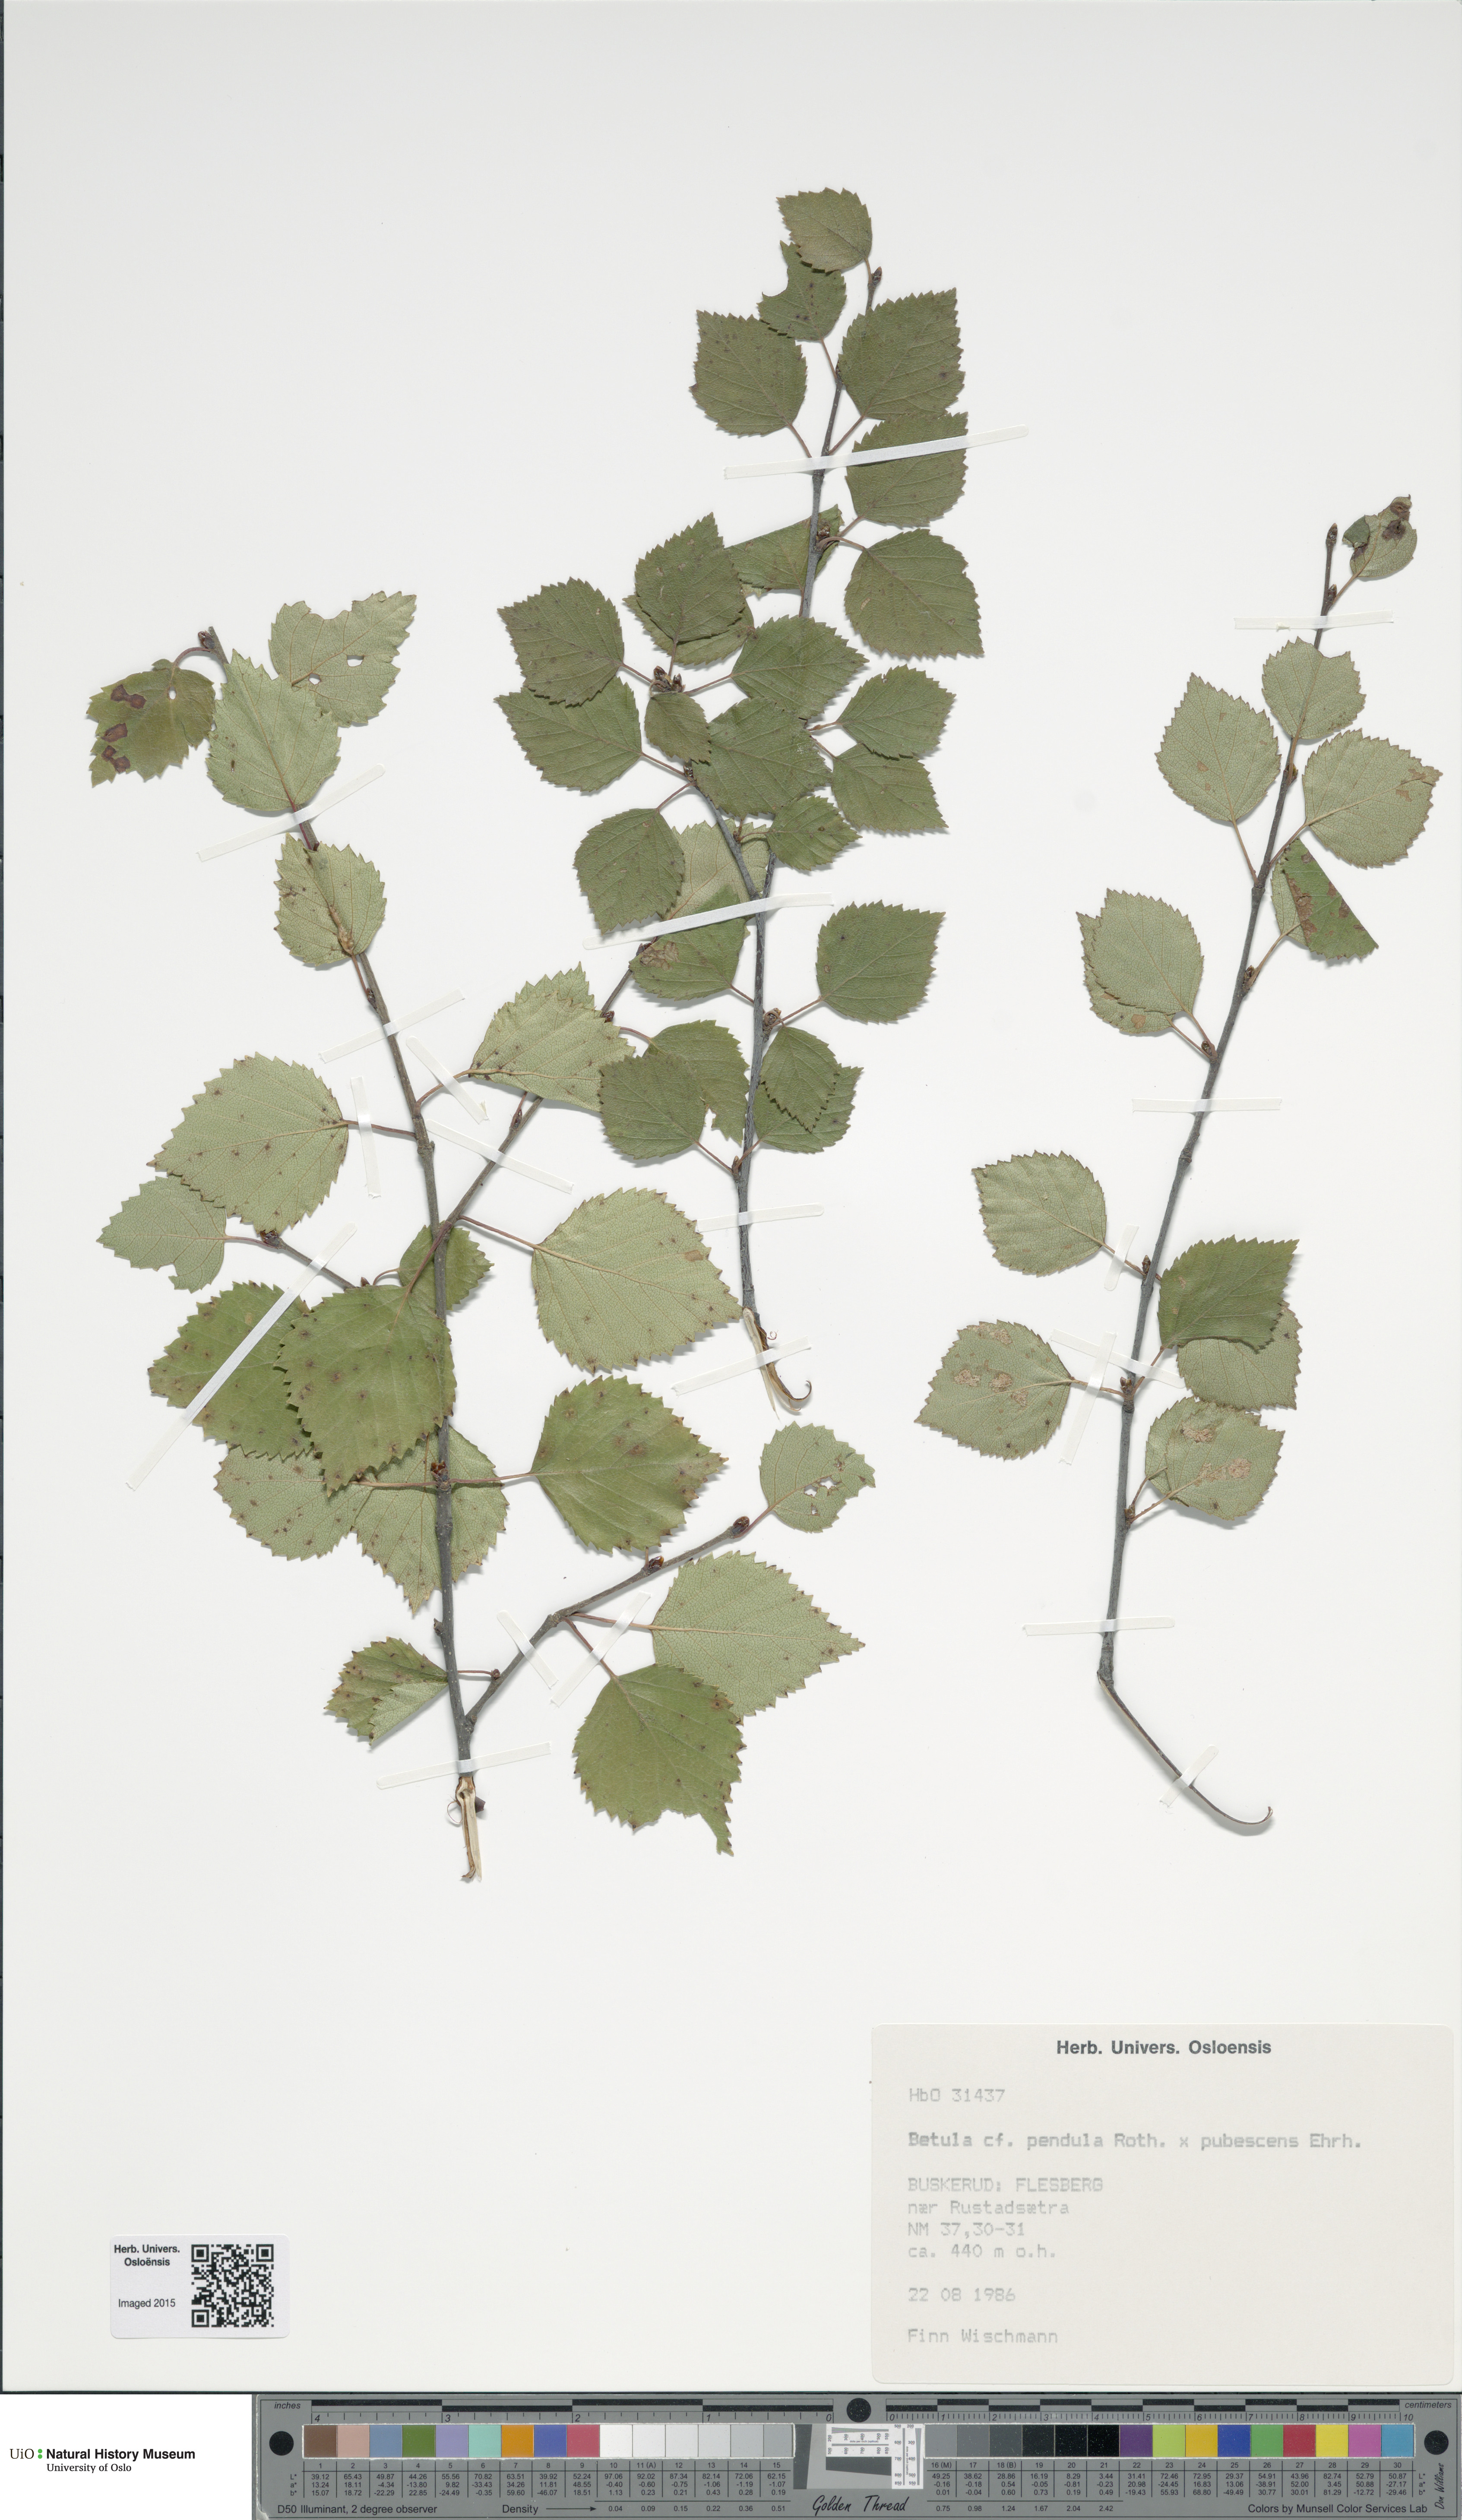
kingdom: Plantae
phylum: Tracheophyta
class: Magnoliopsida
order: Fagales
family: Betulaceae
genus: Betula
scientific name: Betula
